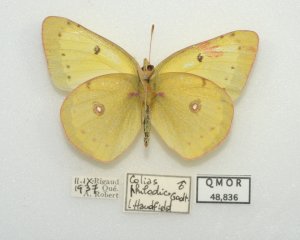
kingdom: Animalia
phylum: Arthropoda
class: Insecta
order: Lepidoptera
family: Pieridae
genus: Colias
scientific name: Colias philodice
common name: Clouded Sulphur
